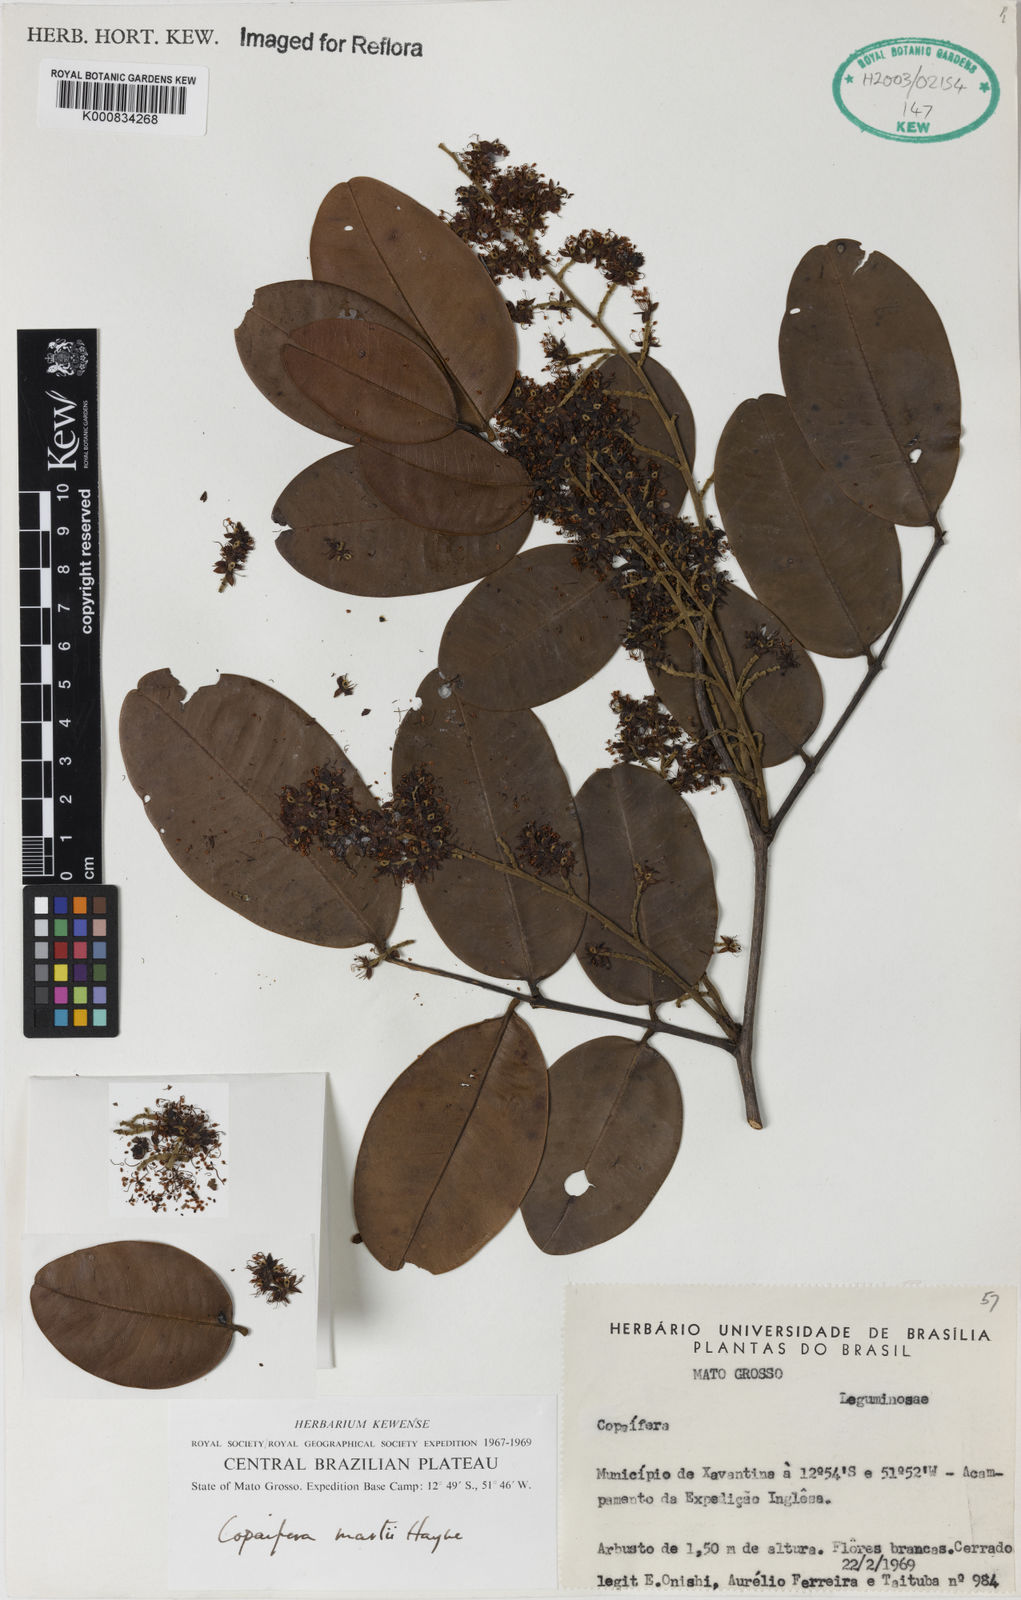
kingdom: Plantae
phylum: Tracheophyta
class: Magnoliopsida
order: Fabales
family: Fabaceae
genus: Copaifera
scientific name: Copaifera martii
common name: Copaiba
